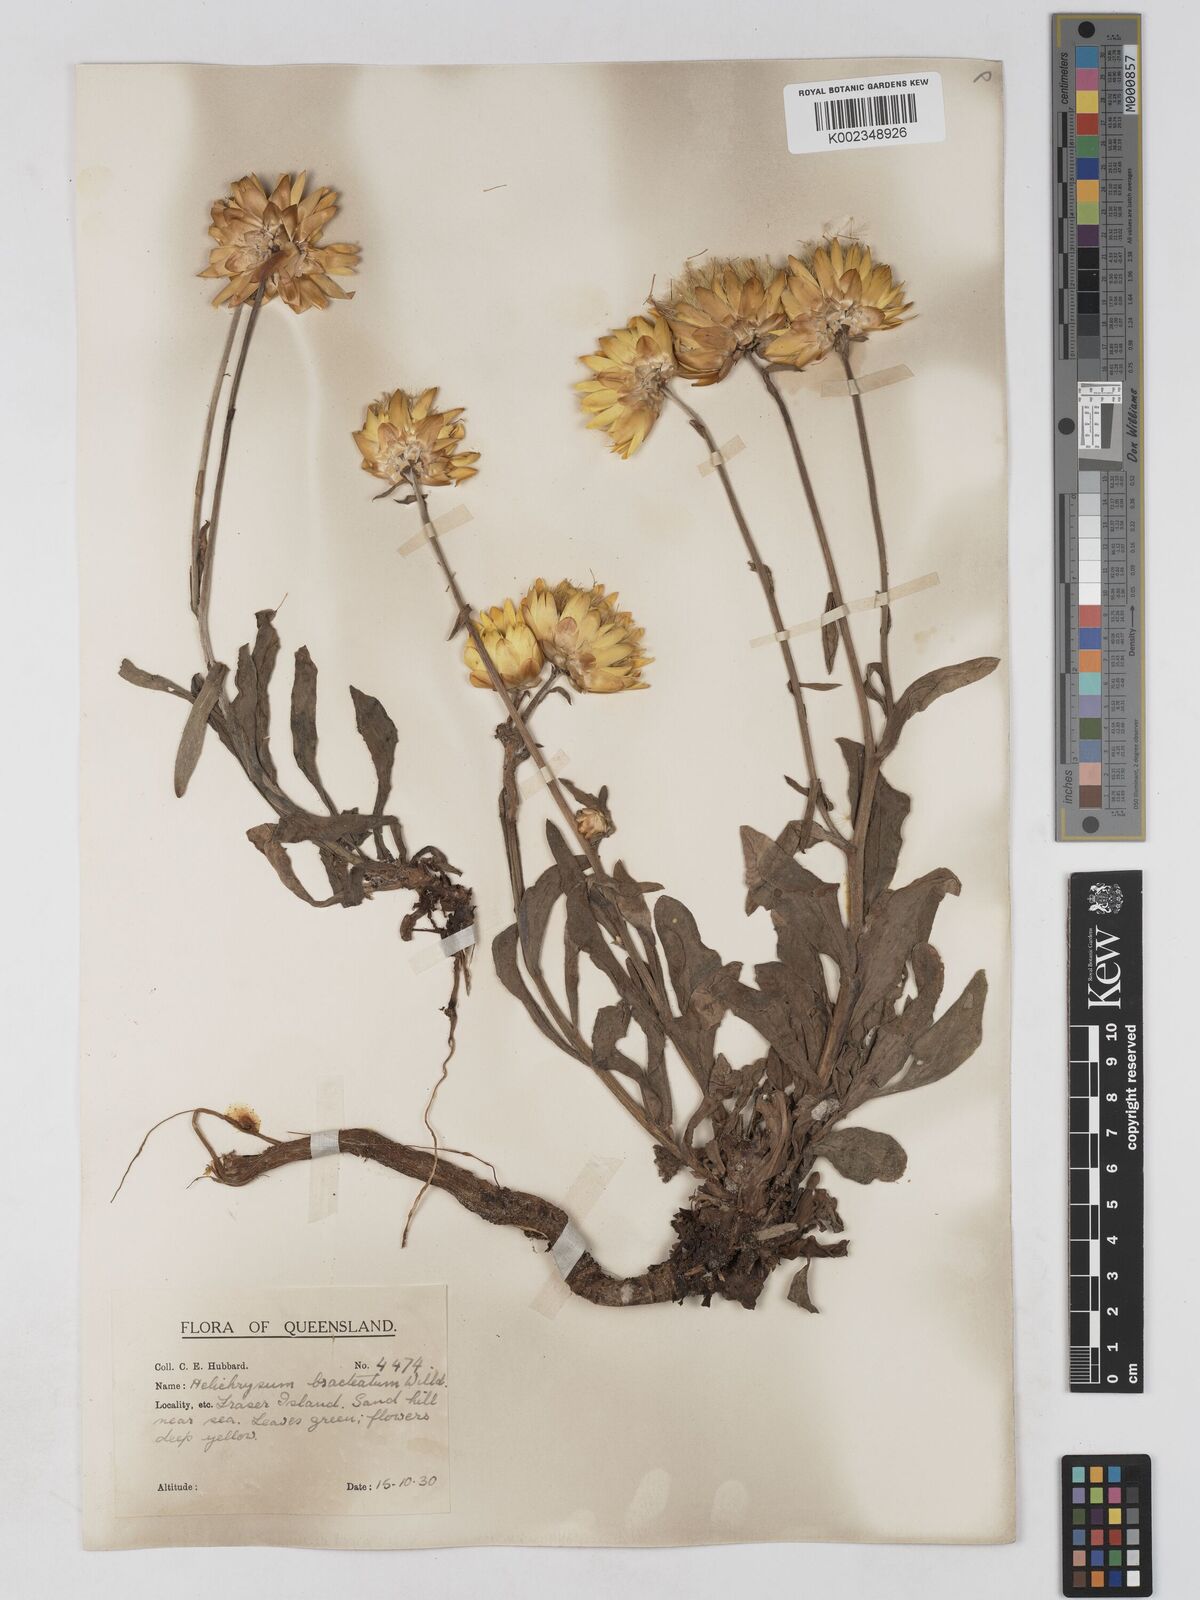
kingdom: Plantae
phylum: Tracheophyta
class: Magnoliopsida
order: Asterales
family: Asteraceae
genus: Xerochrysum
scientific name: Xerochrysum bracteatum
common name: Bracted strawflower
